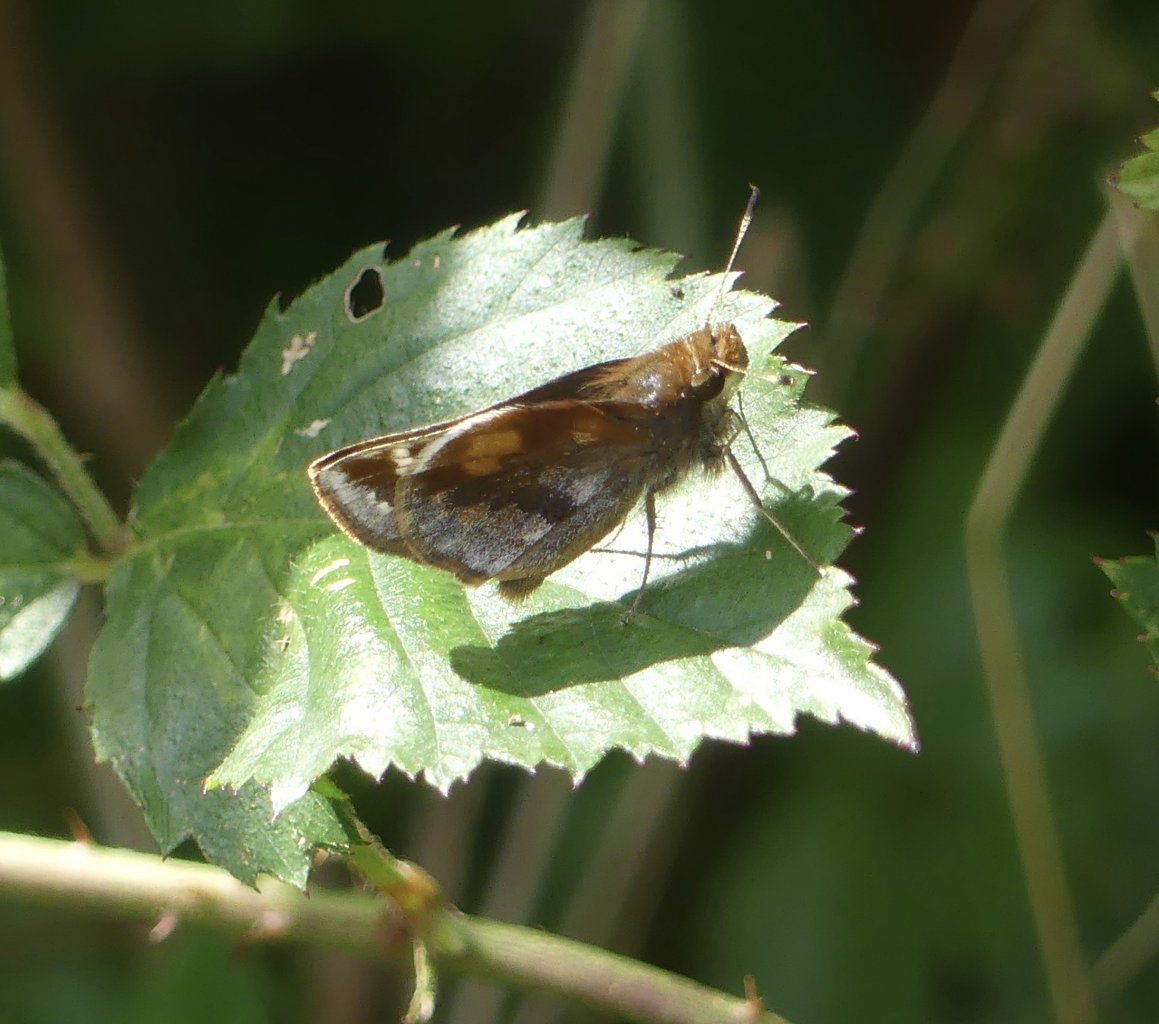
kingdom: Animalia
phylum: Arthropoda
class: Insecta
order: Lepidoptera
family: Hesperiidae
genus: Lon
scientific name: Lon zabulon
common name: Zabulon Skipper
